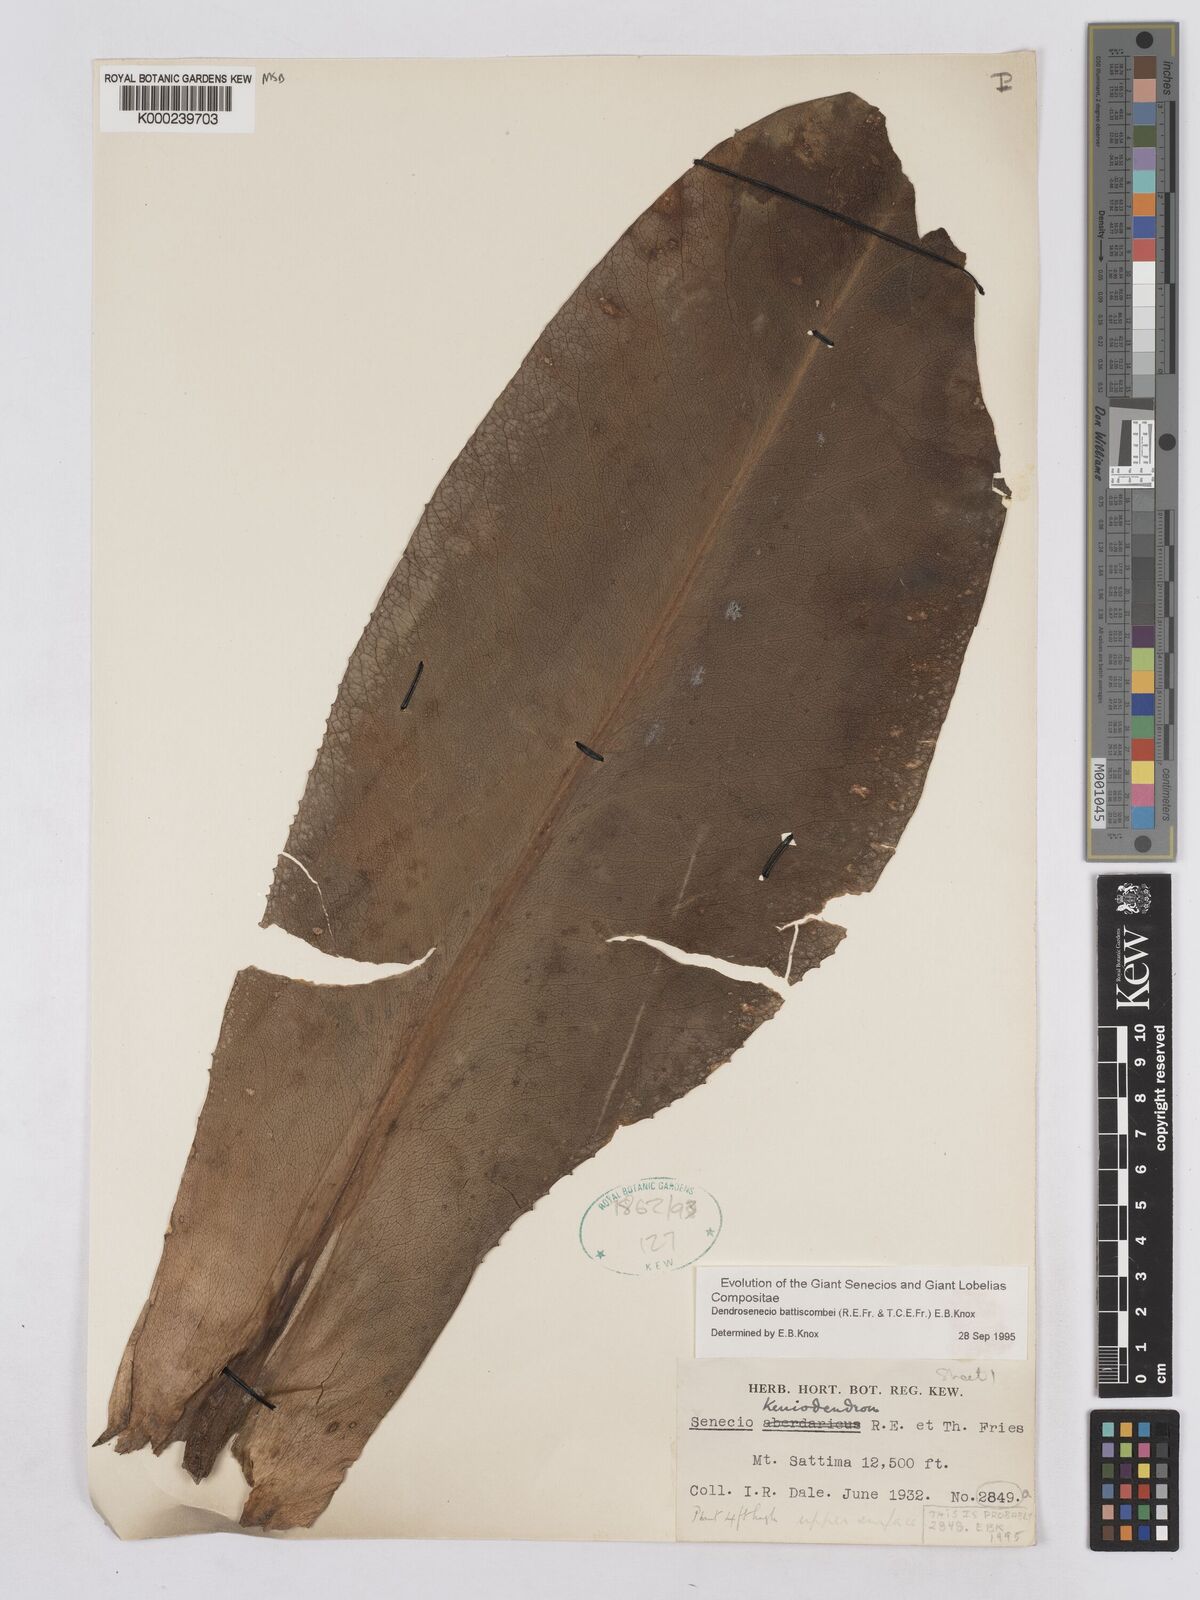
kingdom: Plantae
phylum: Tracheophyta
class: Magnoliopsida
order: Asterales
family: Asteraceae
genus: Dendrosenecio
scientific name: Dendrosenecio battiscombei
